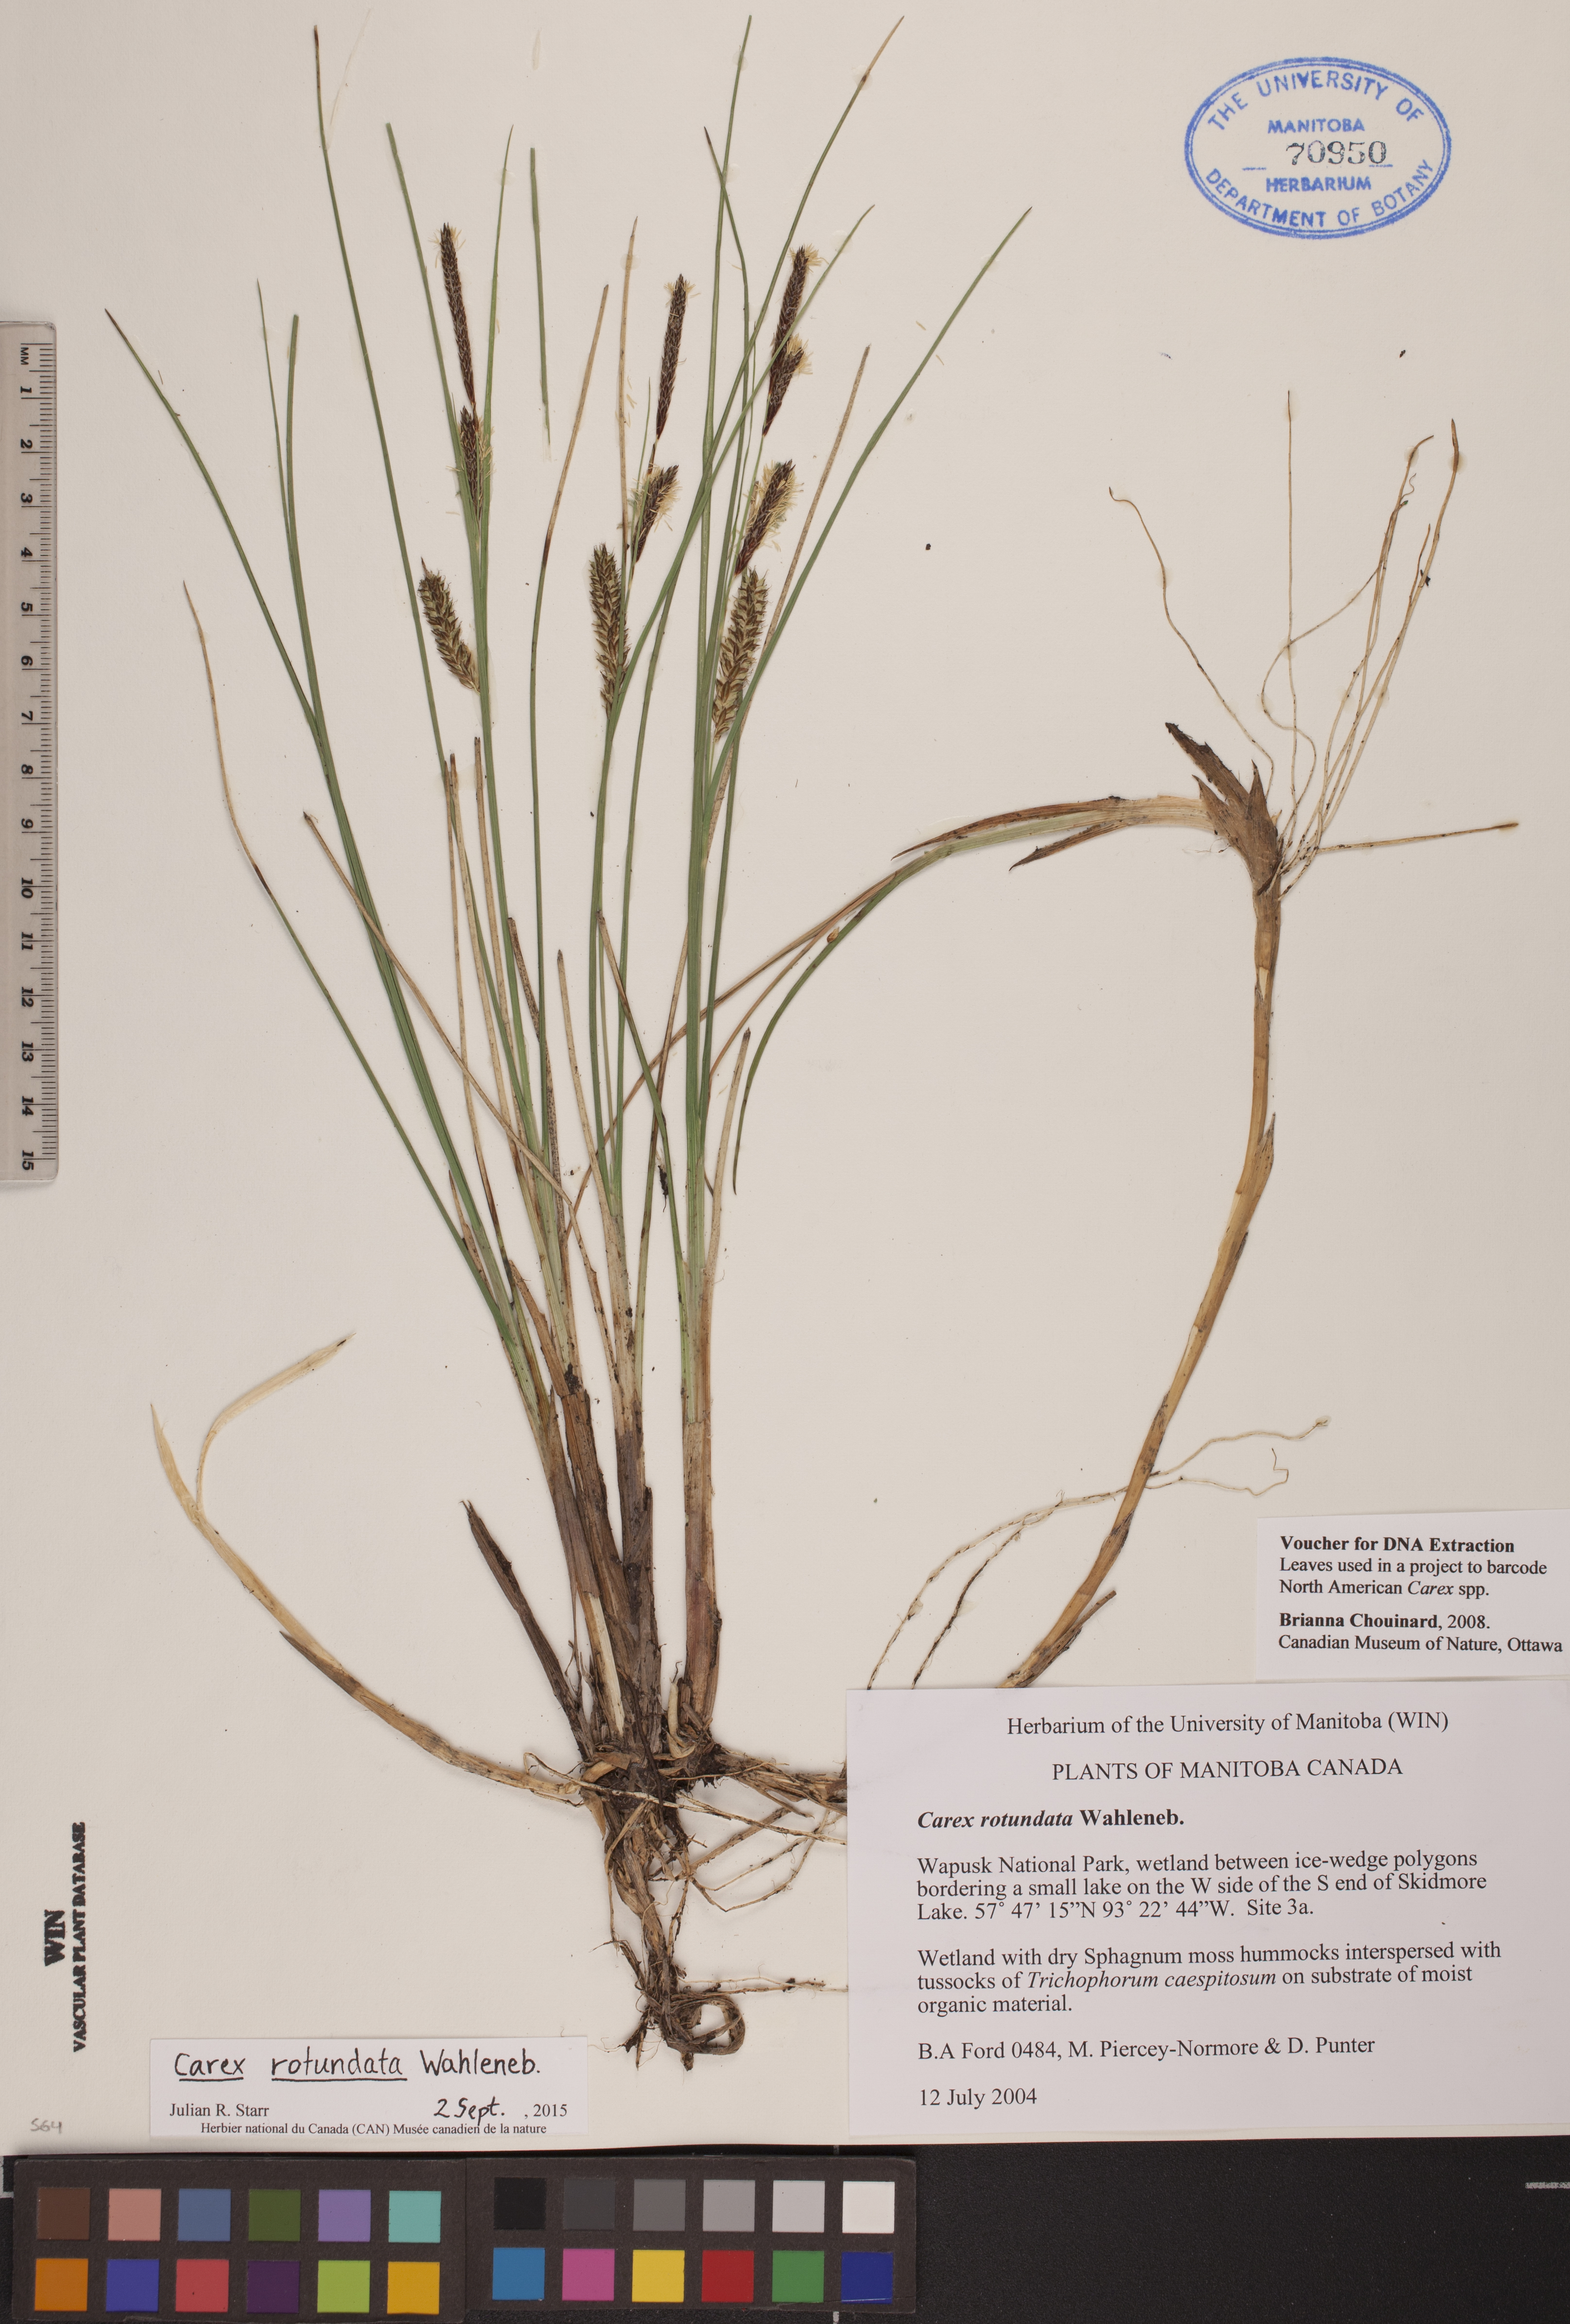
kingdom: Plantae
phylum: Tracheophyta
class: Liliopsida
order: Poales
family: Cyperaceae
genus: Carex
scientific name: Carex rotundata
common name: Round-fruited sedge
